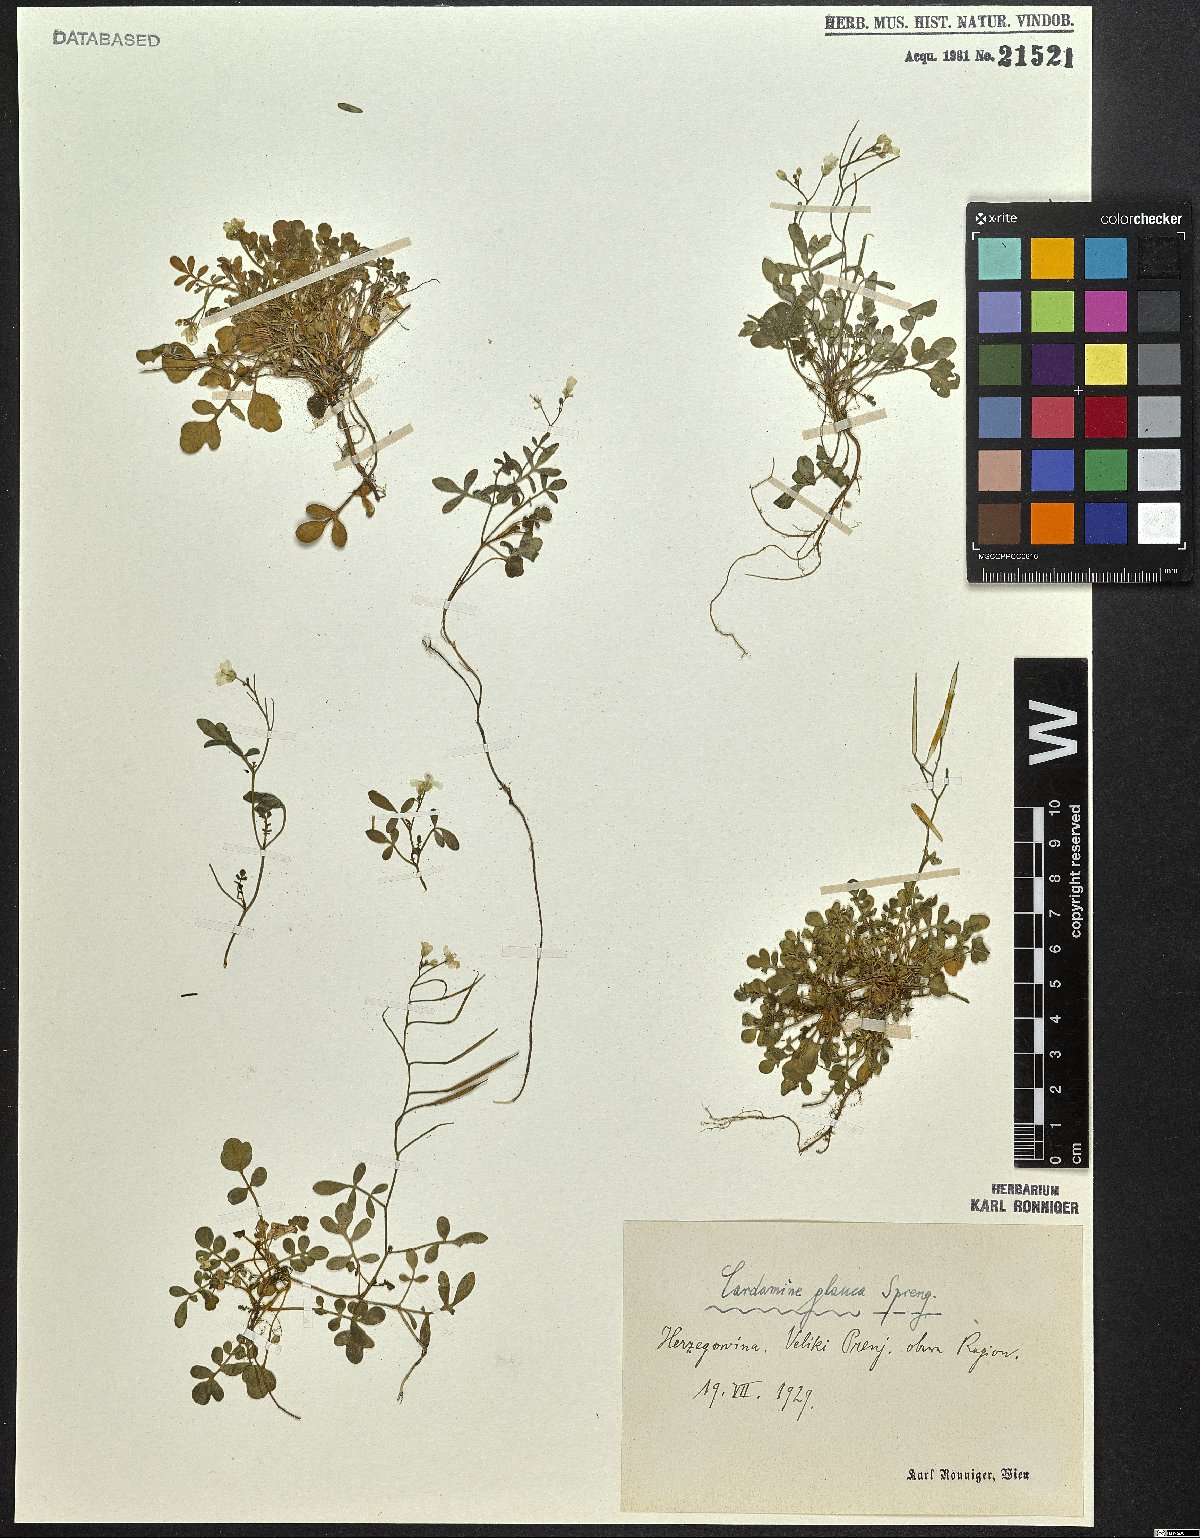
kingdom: Plantae
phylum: Tracheophyta
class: Magnoliopsida
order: Brassicales
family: Brassicaceae
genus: Cardamine
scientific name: Cardamine glauca
